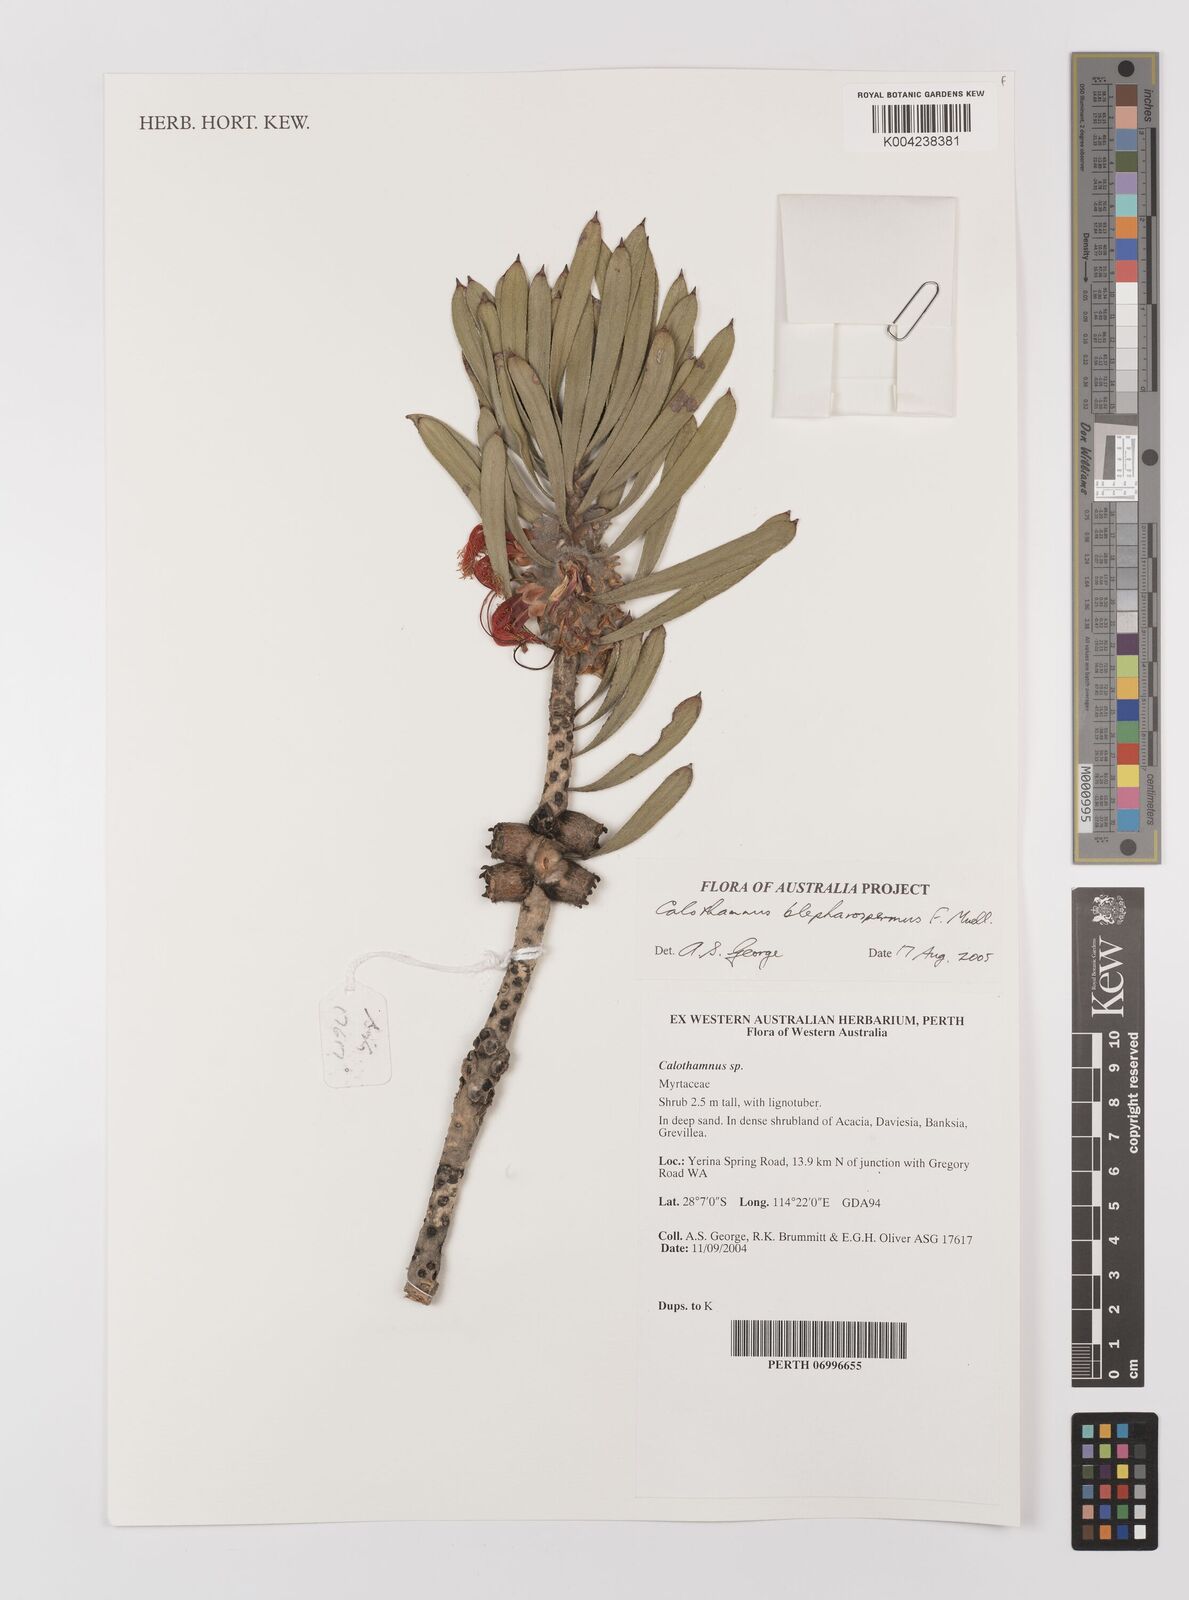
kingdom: Plantae
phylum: Tracheophyta
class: Magnoliopsida
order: Myrtales
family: Myrtaceae
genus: Melaleuca
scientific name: Melaleuca blepharosperma
